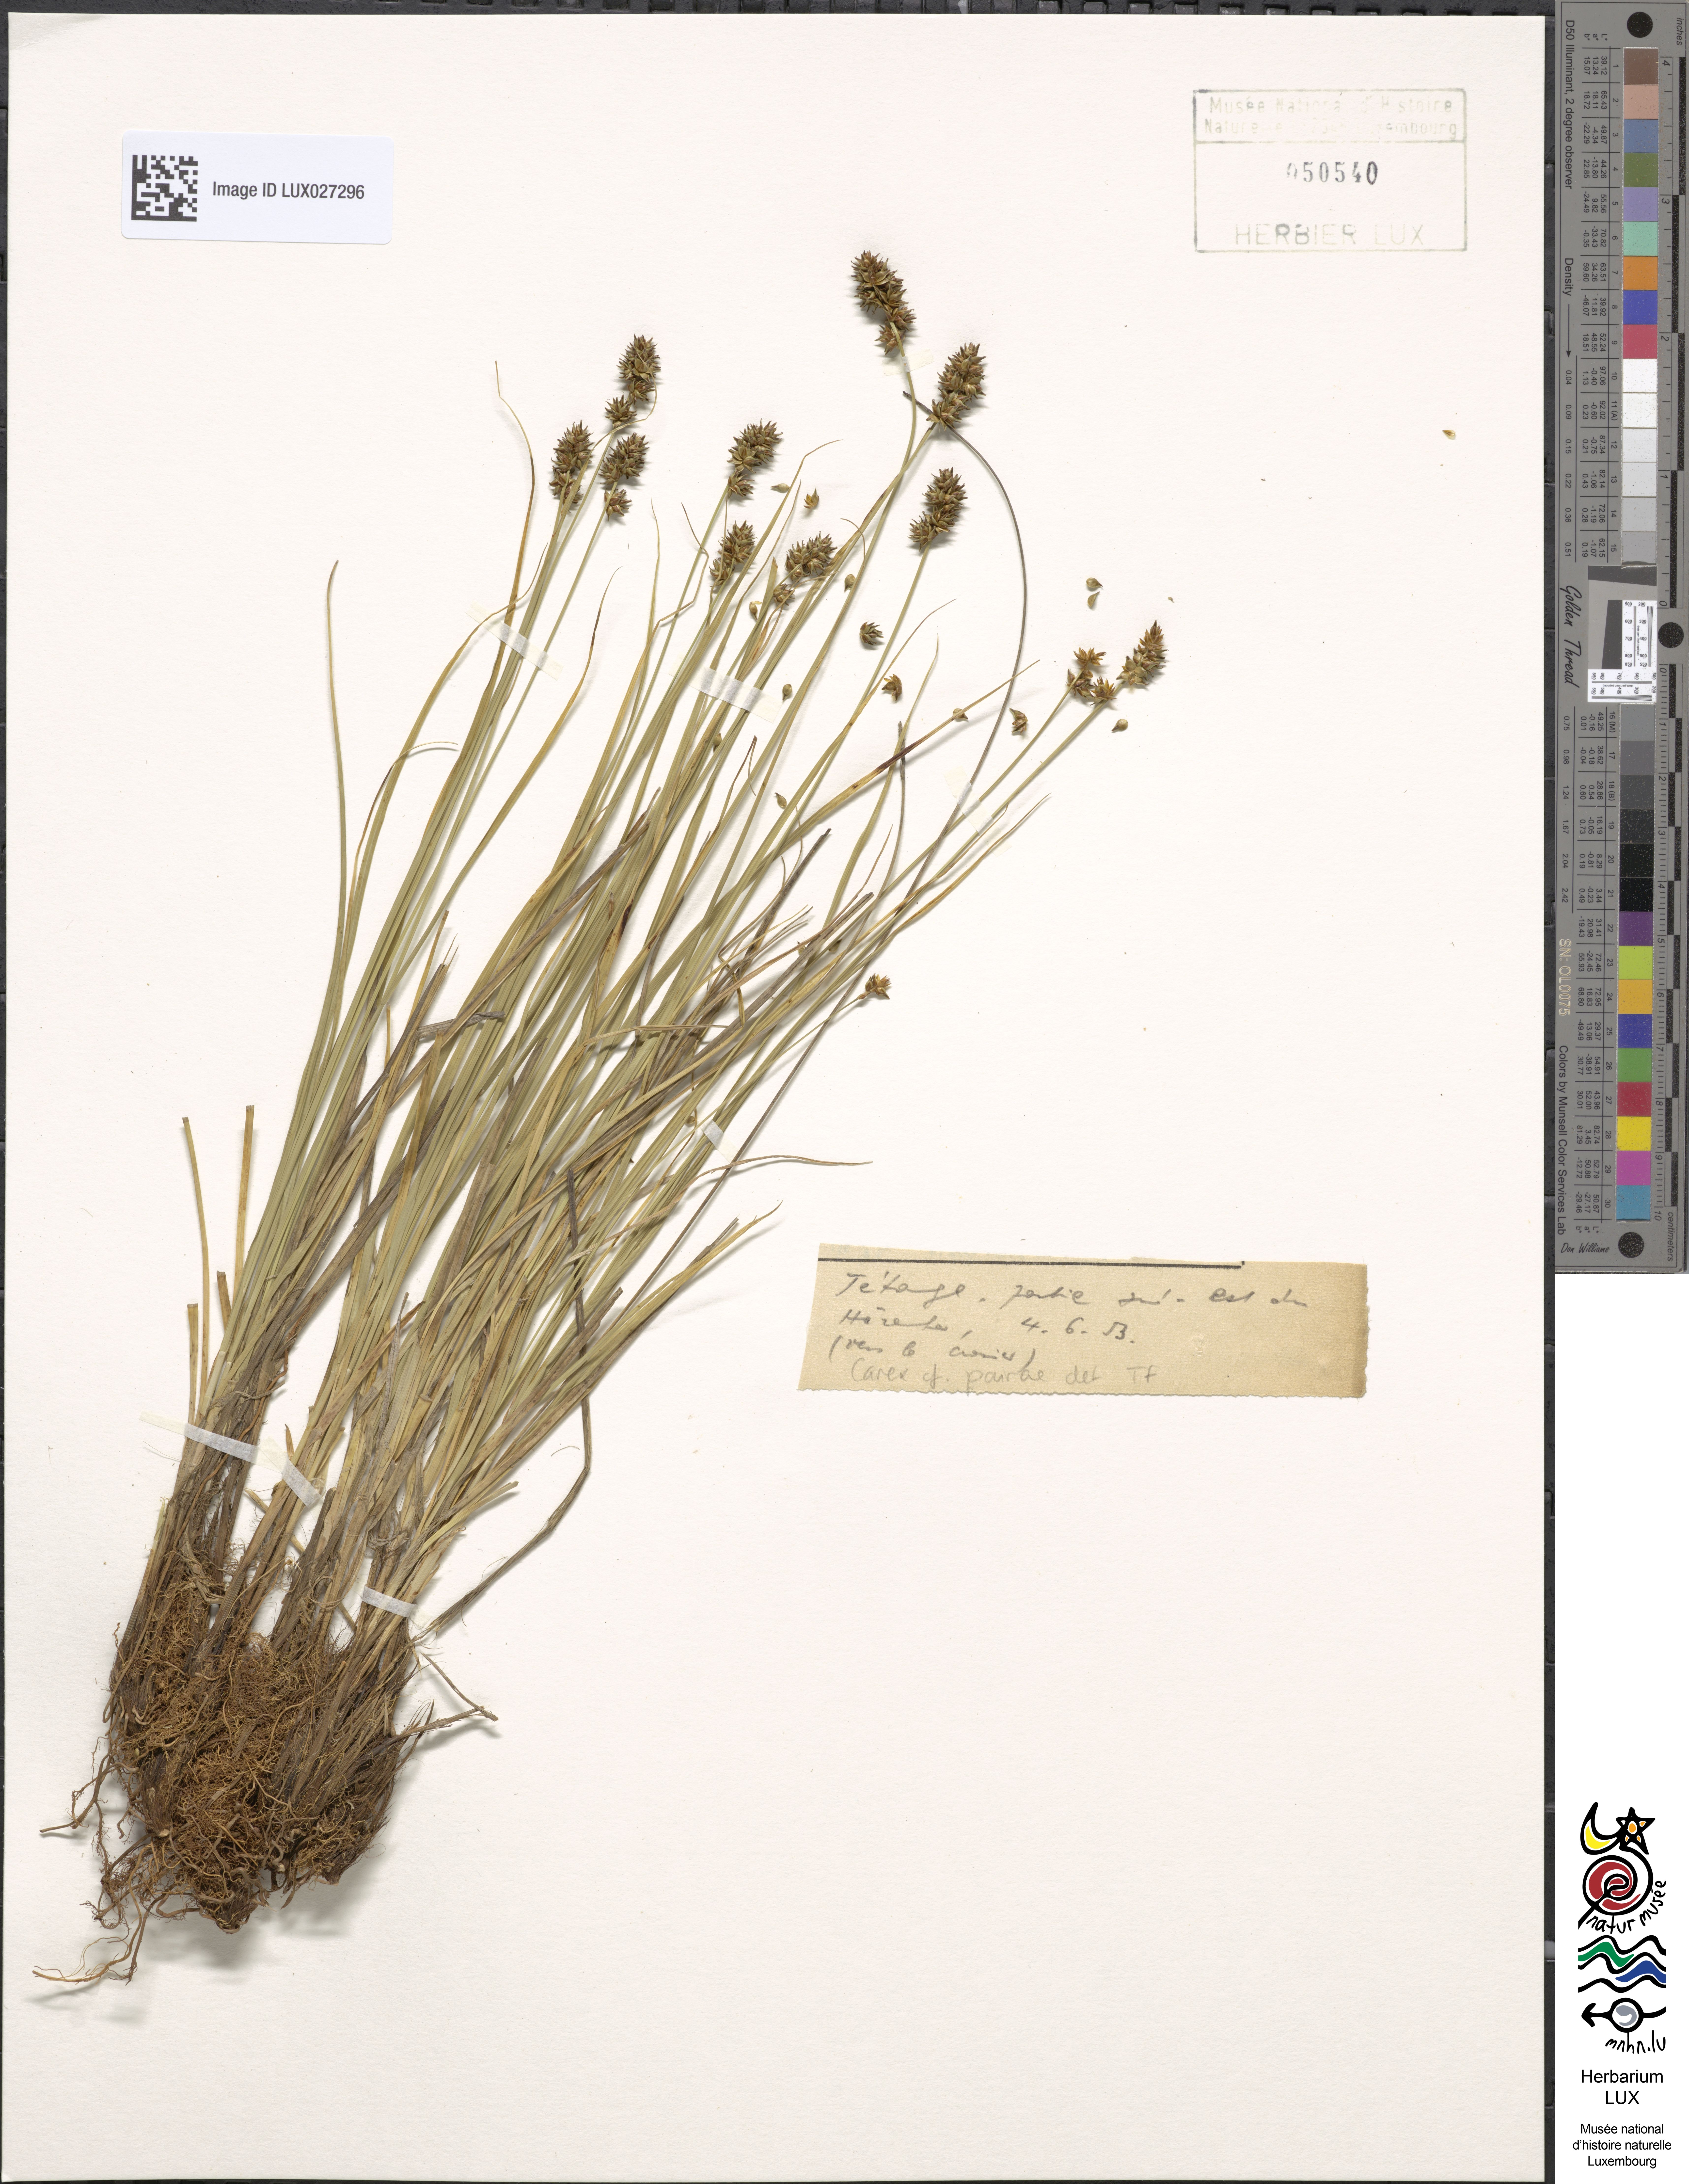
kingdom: Plantae
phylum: Tracheophyta
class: Liliopsida
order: Poales
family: Cyperaceae
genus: Carex
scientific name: Carex pairae
